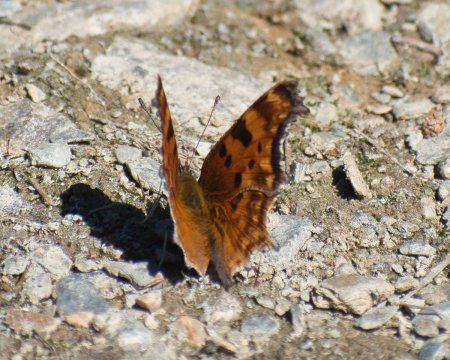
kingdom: Animalia
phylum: Arthropoda
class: Insecta
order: Lepidoptera
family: Nymphalidae
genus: Polygonia
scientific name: Polygonia gracilis
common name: Hoary Comma
